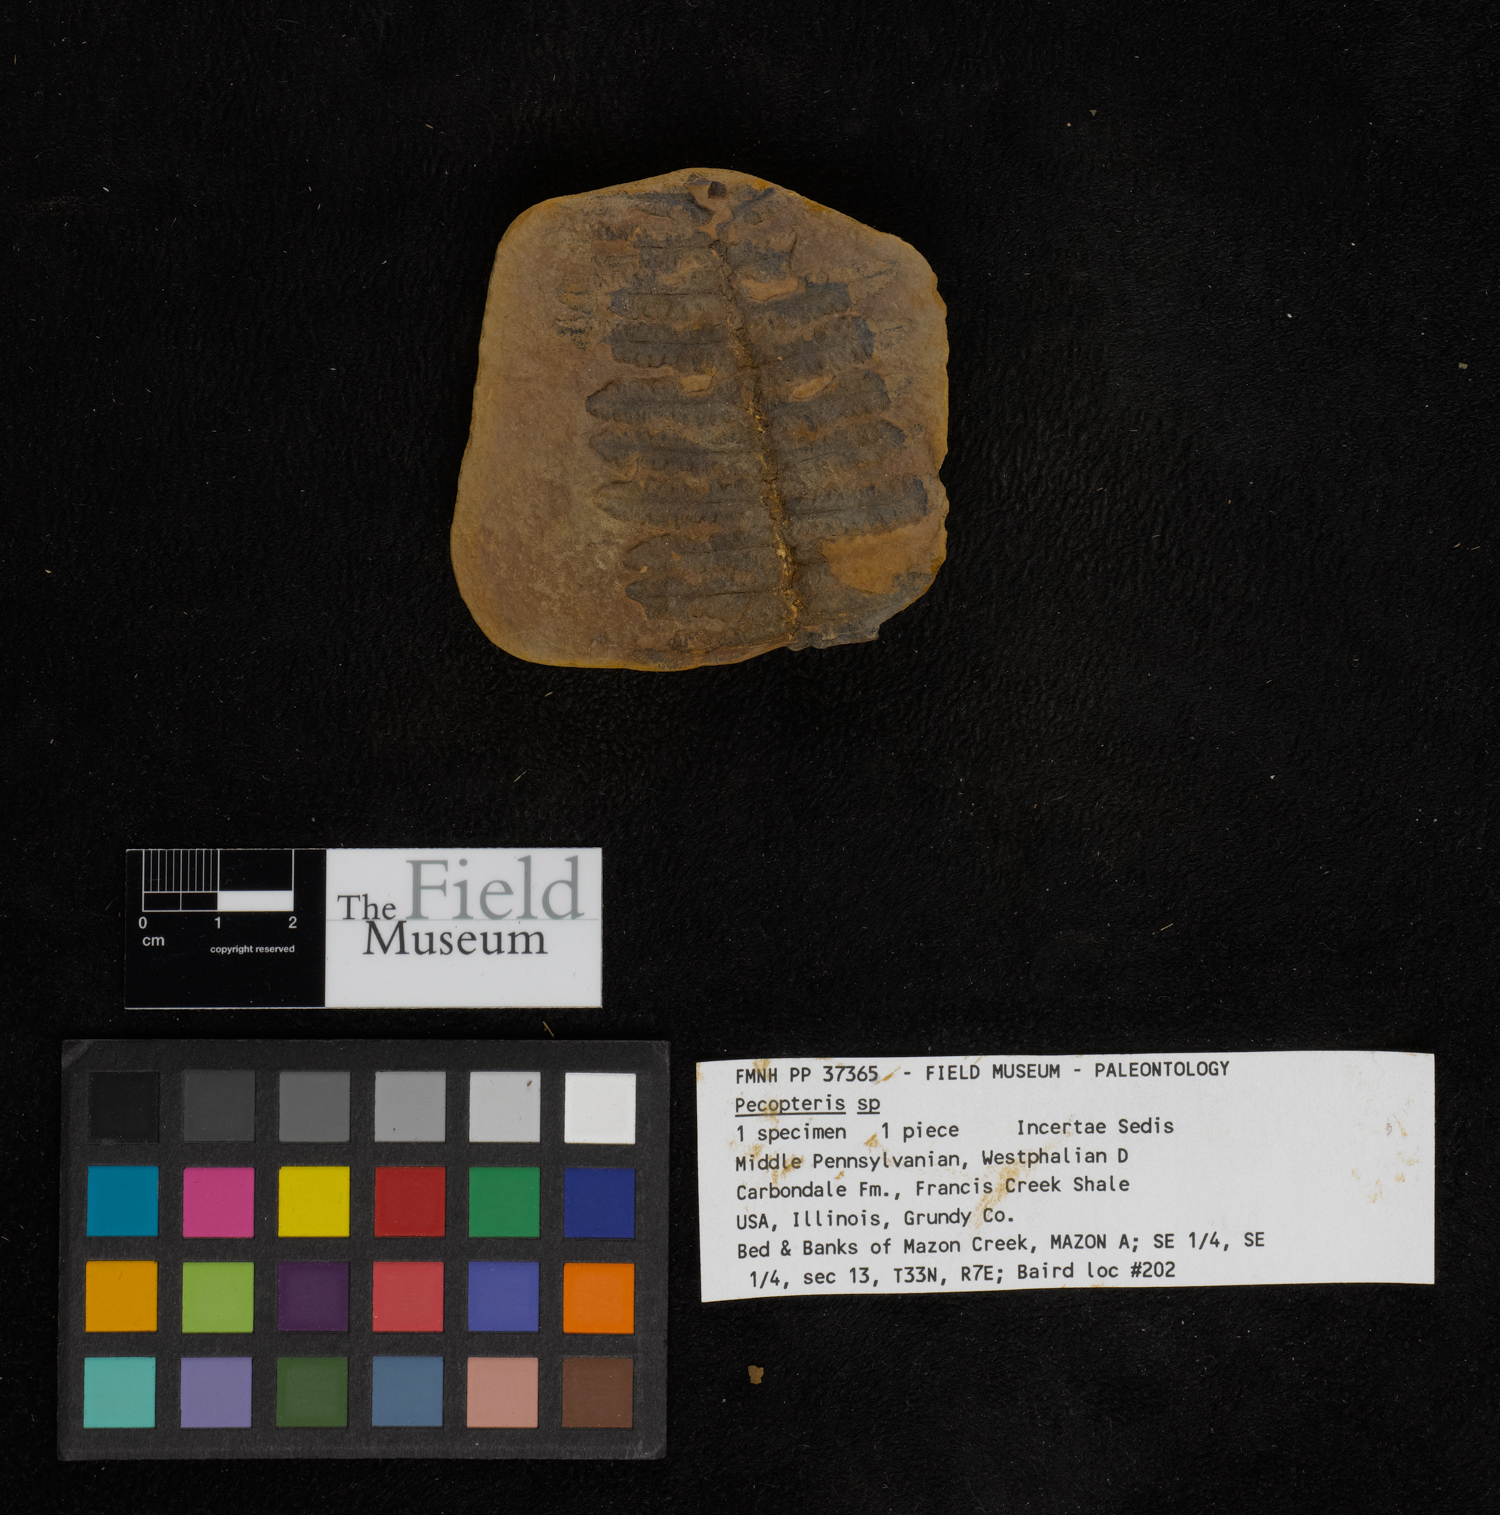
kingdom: Plantae
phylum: Tracheophyta
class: Polypodiopsida
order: Marattiales
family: Asterothecaceae
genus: Pecopteris
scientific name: Pecopteris
